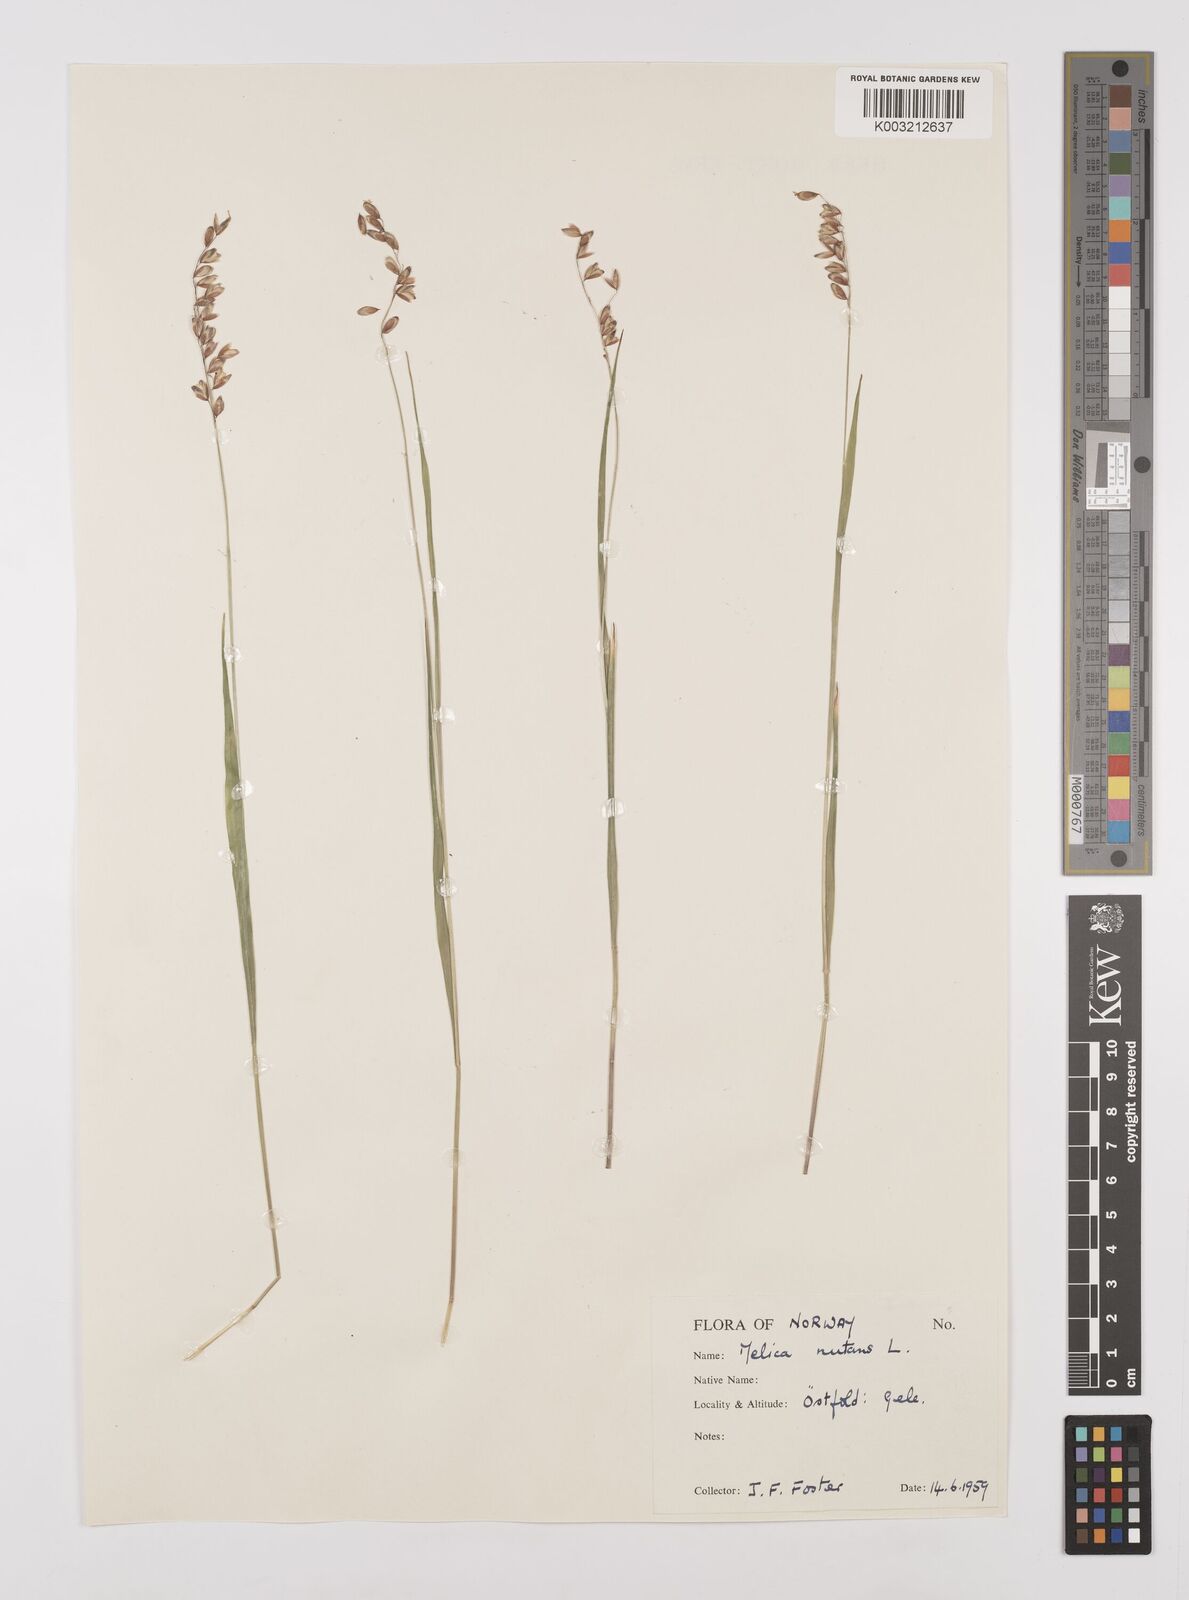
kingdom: Plantae
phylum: Tracheophyta
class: Liliopsida
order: Poales
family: Poaceae
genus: Melica
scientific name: Melica
